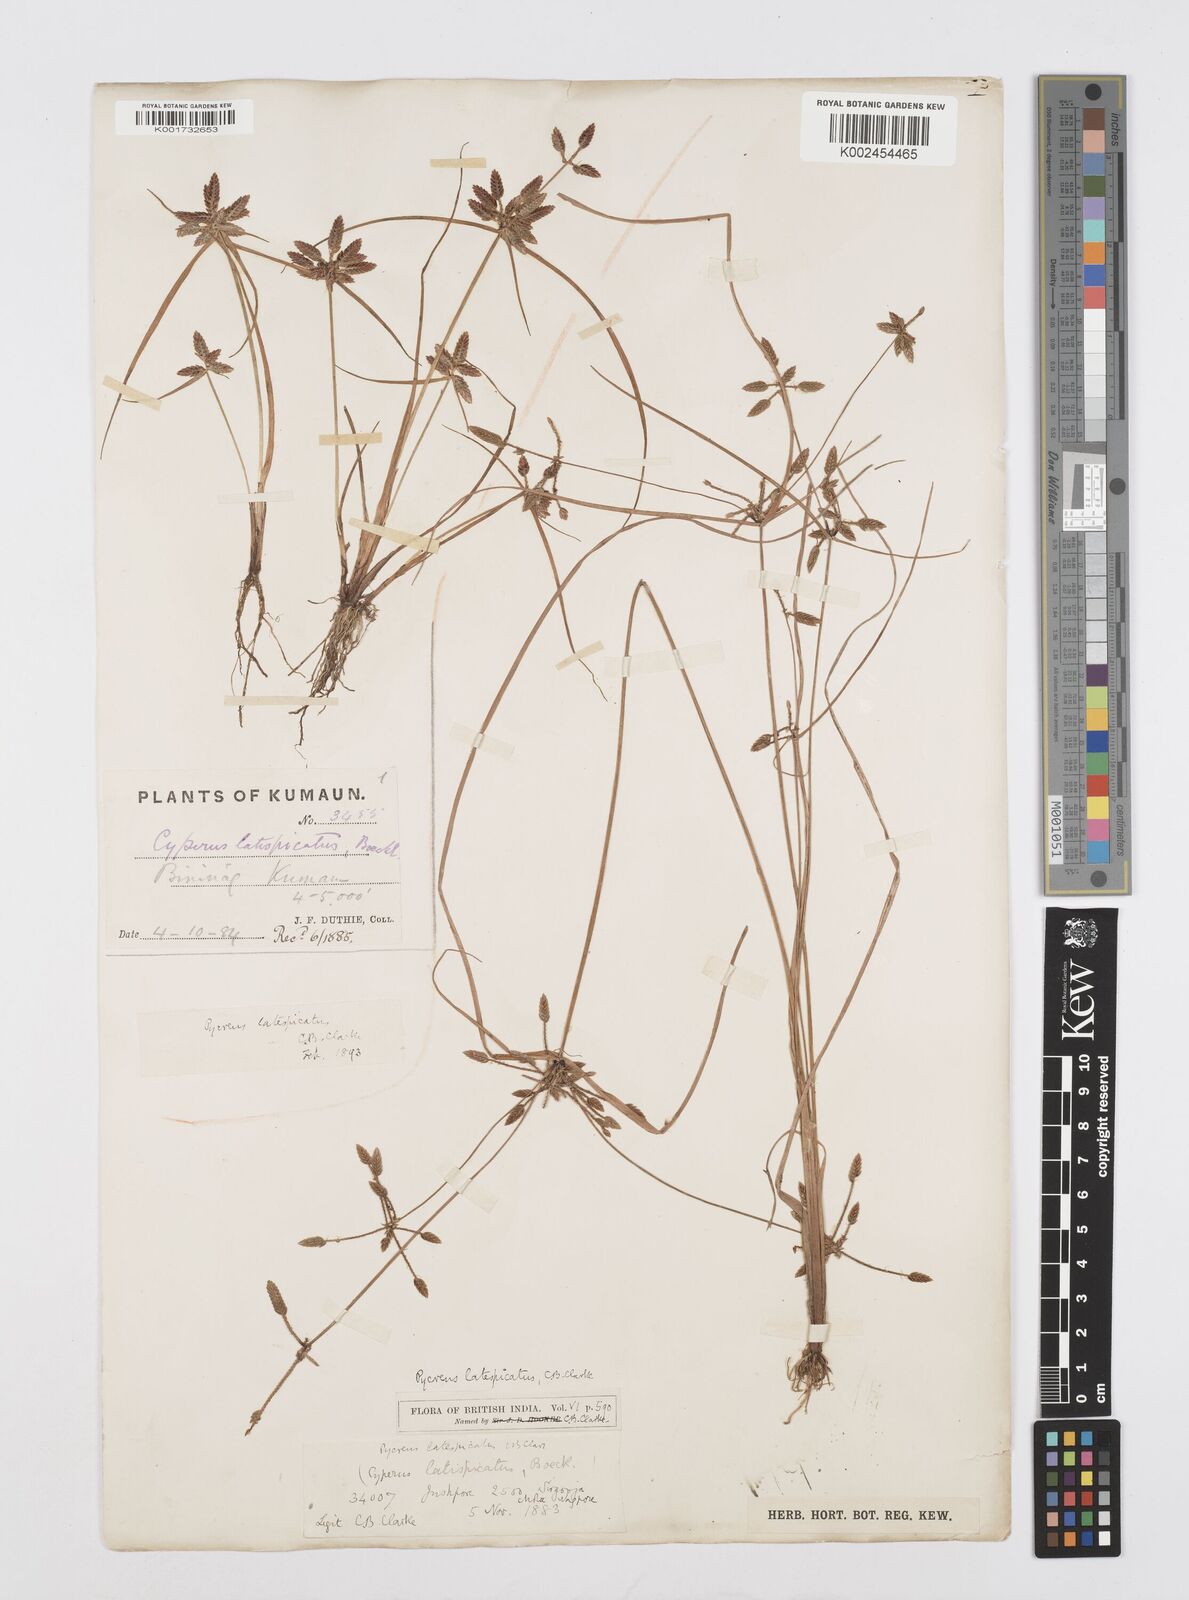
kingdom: Plantae
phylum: Tracheophyta
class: Liliopsida
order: Poales
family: Cyperaceae
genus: Cyperus
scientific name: Cyperus diaphanus
